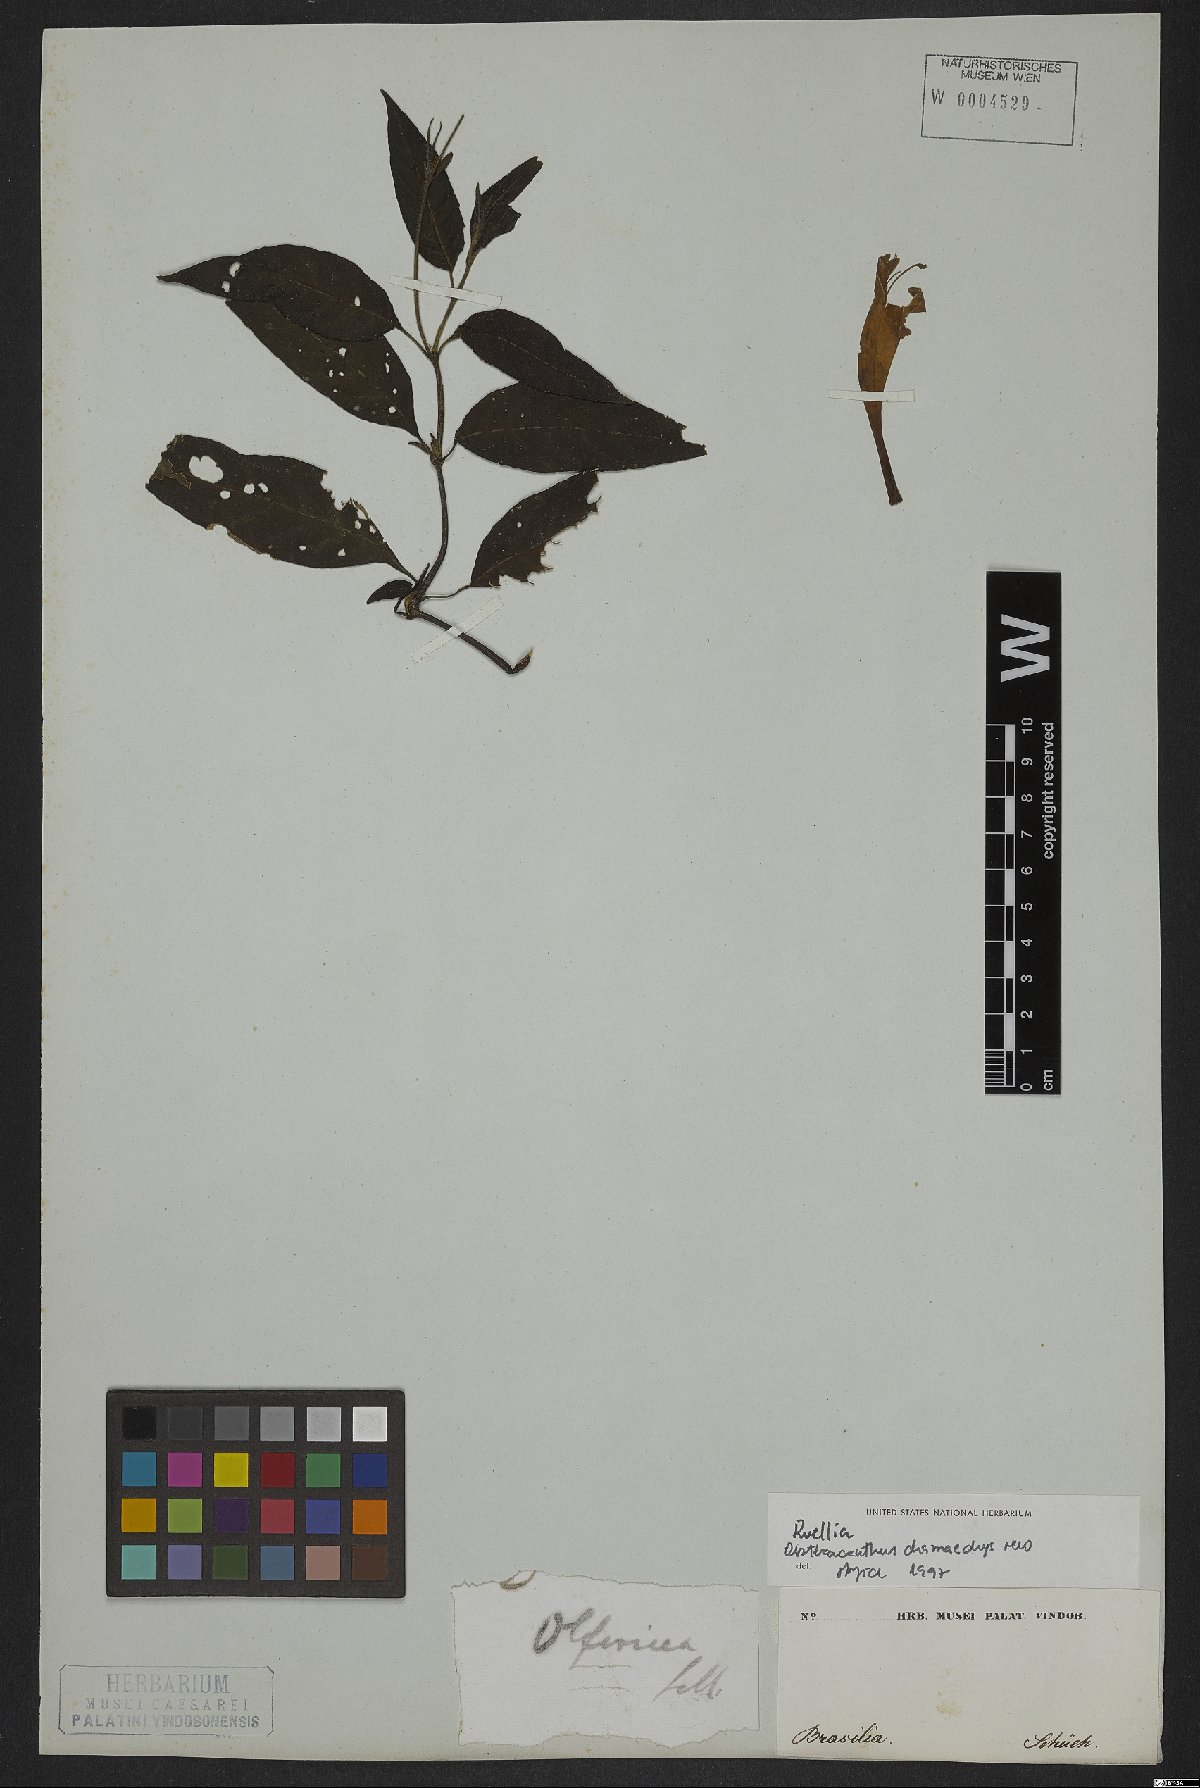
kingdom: Plantae
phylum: Tracheophyta
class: Magnoliopsida
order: Lamiales
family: Acanthaceae
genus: Ruellia
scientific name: Ruellia chamaedrys
